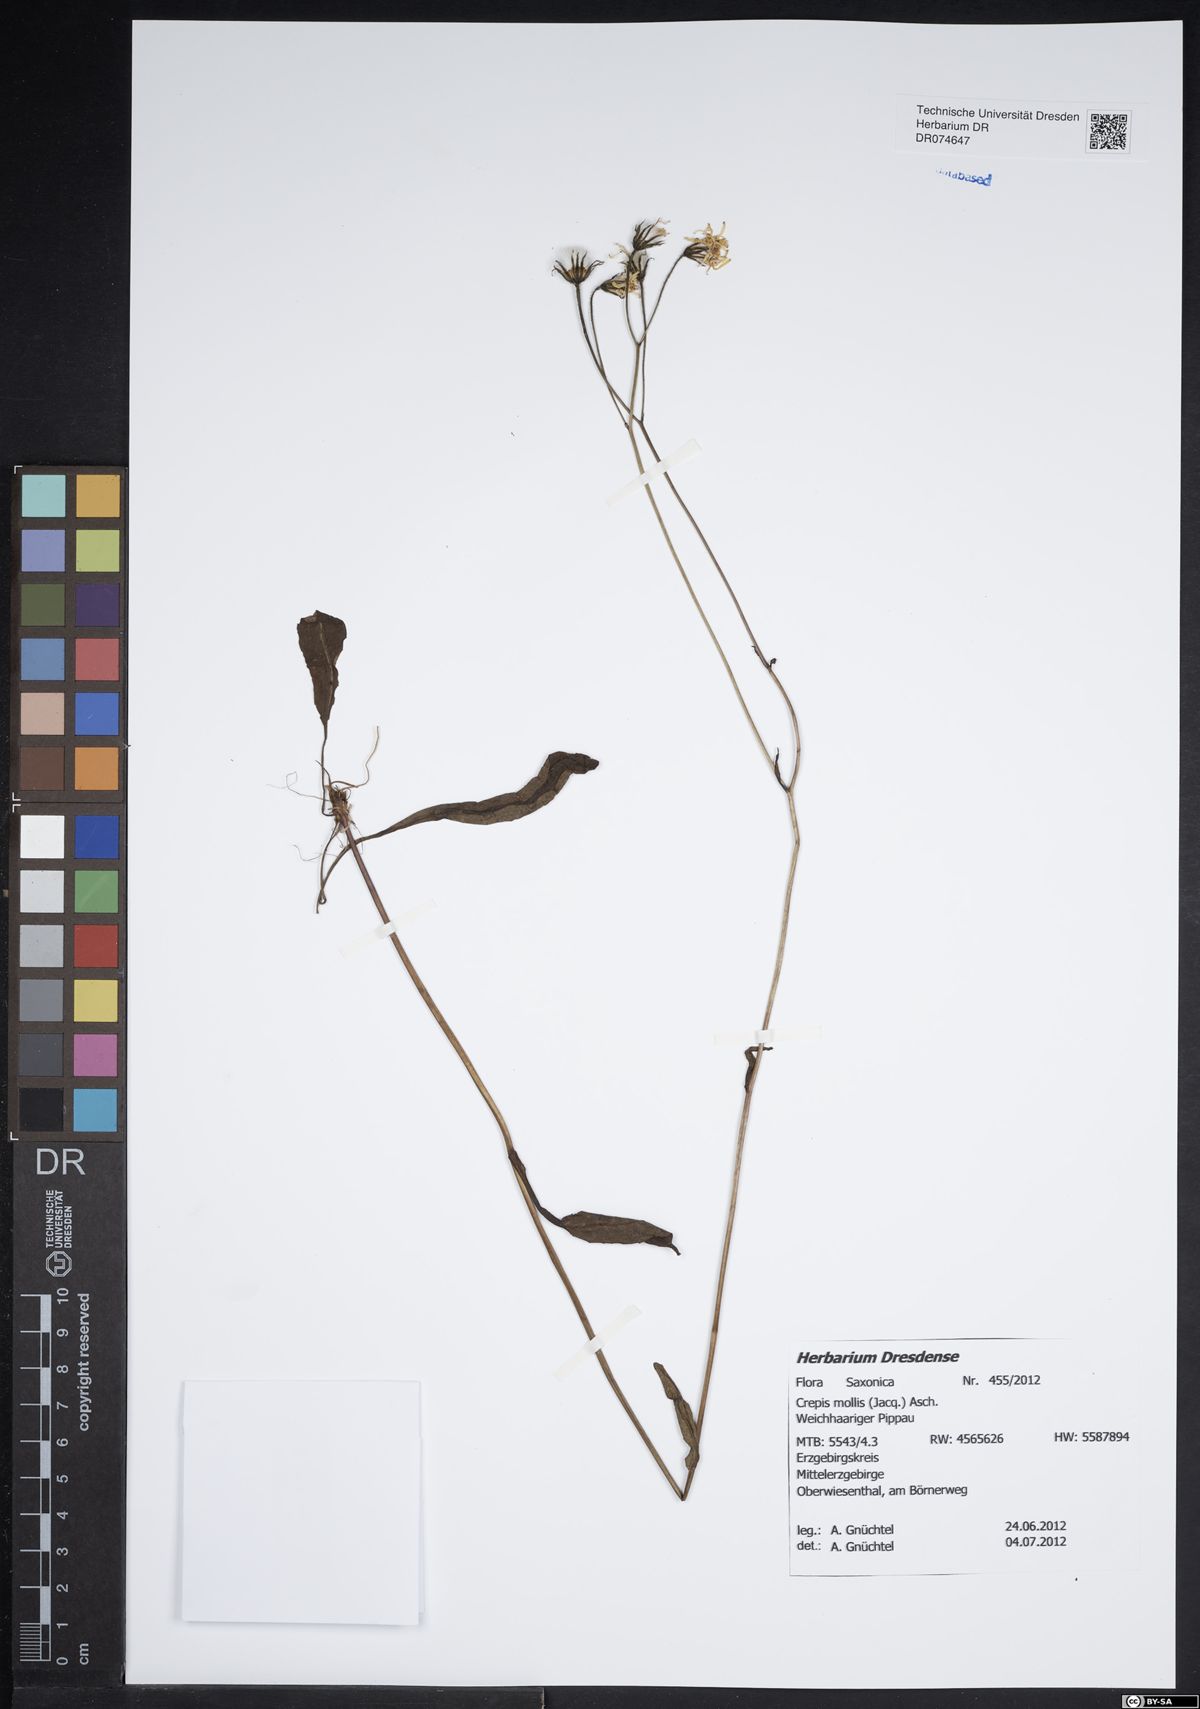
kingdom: Plantae
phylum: Tracheophyta
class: Magnoliopsida
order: Asterales
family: Asteraceae
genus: Crepis
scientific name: Crepis biennis
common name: Rough hawk's-beard
